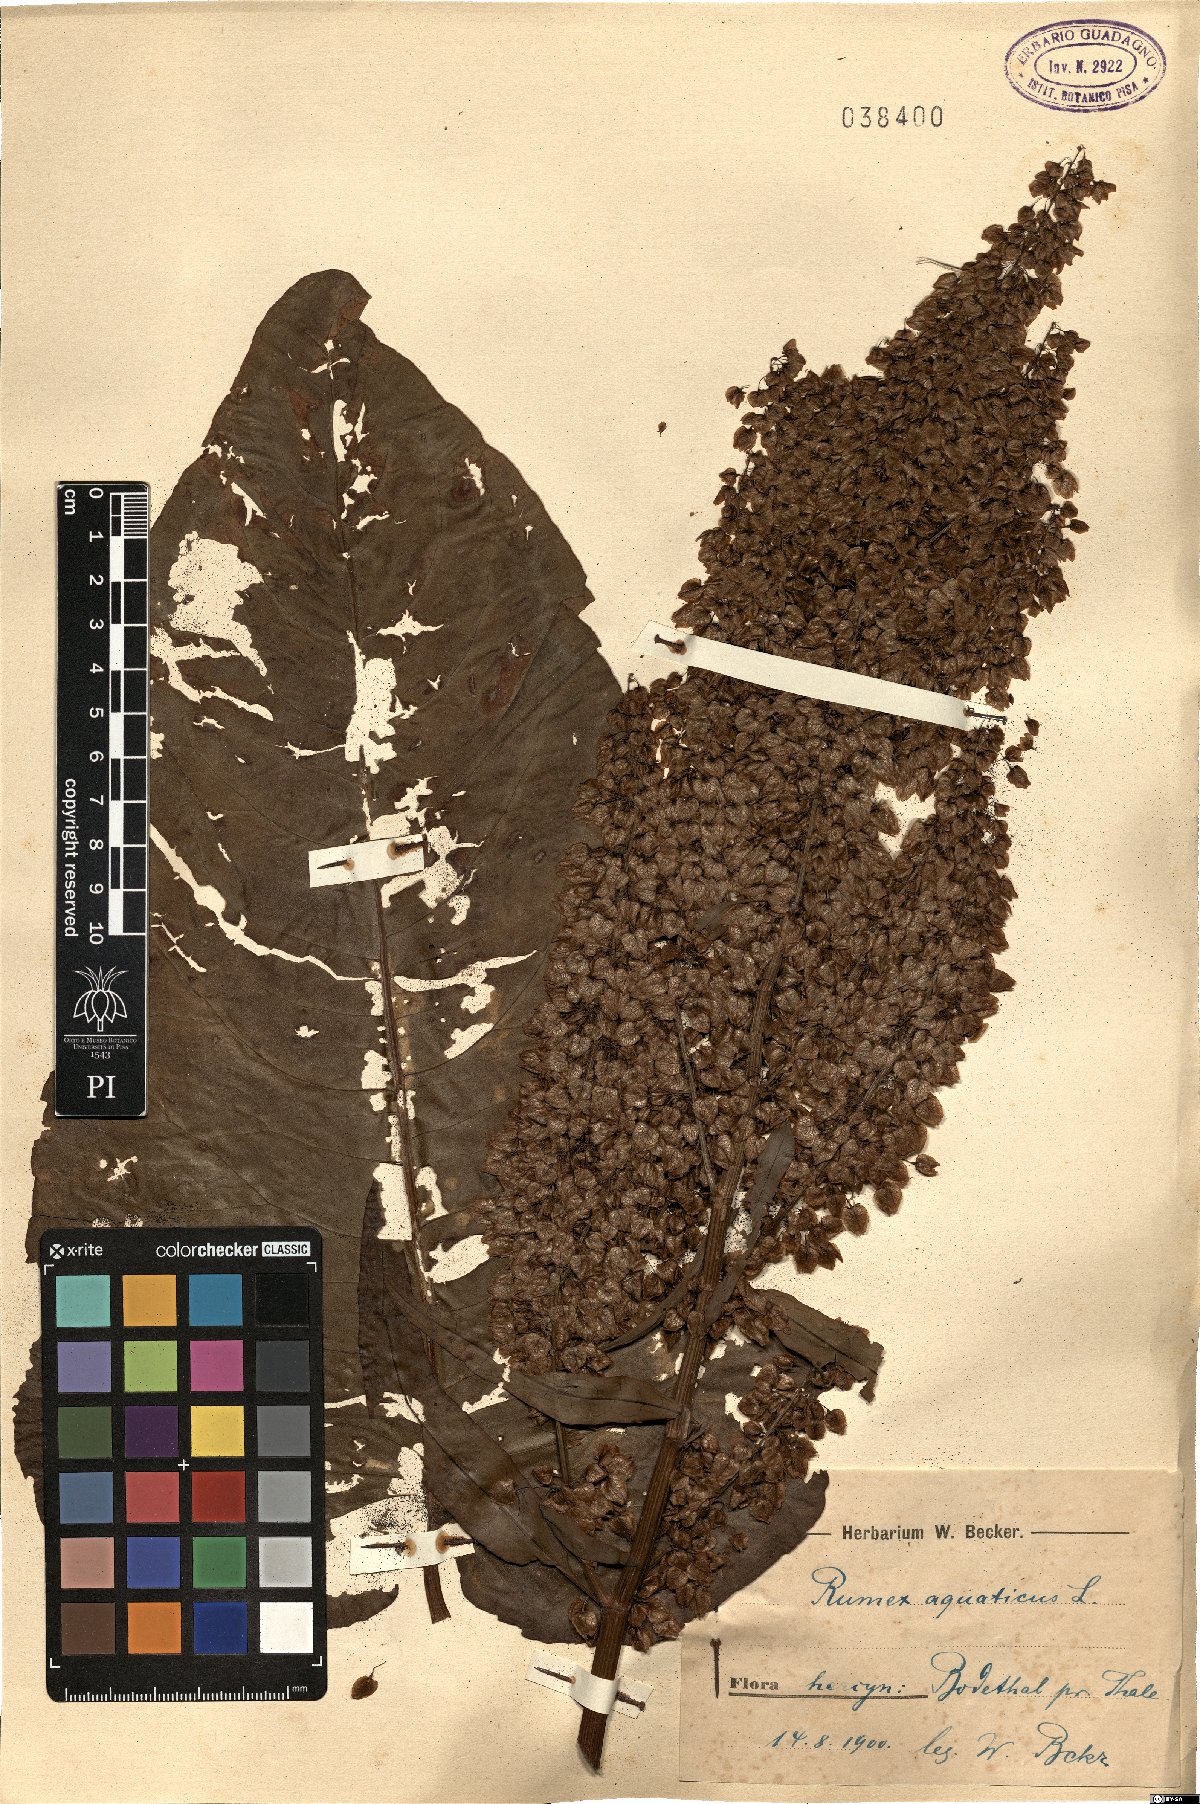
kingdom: Plantae
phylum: Tracheophyta
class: Magnoliopsida
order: Caryophyllales
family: Polygonaceae
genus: Rumex
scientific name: Rumex aquaticus
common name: Scottish dock
